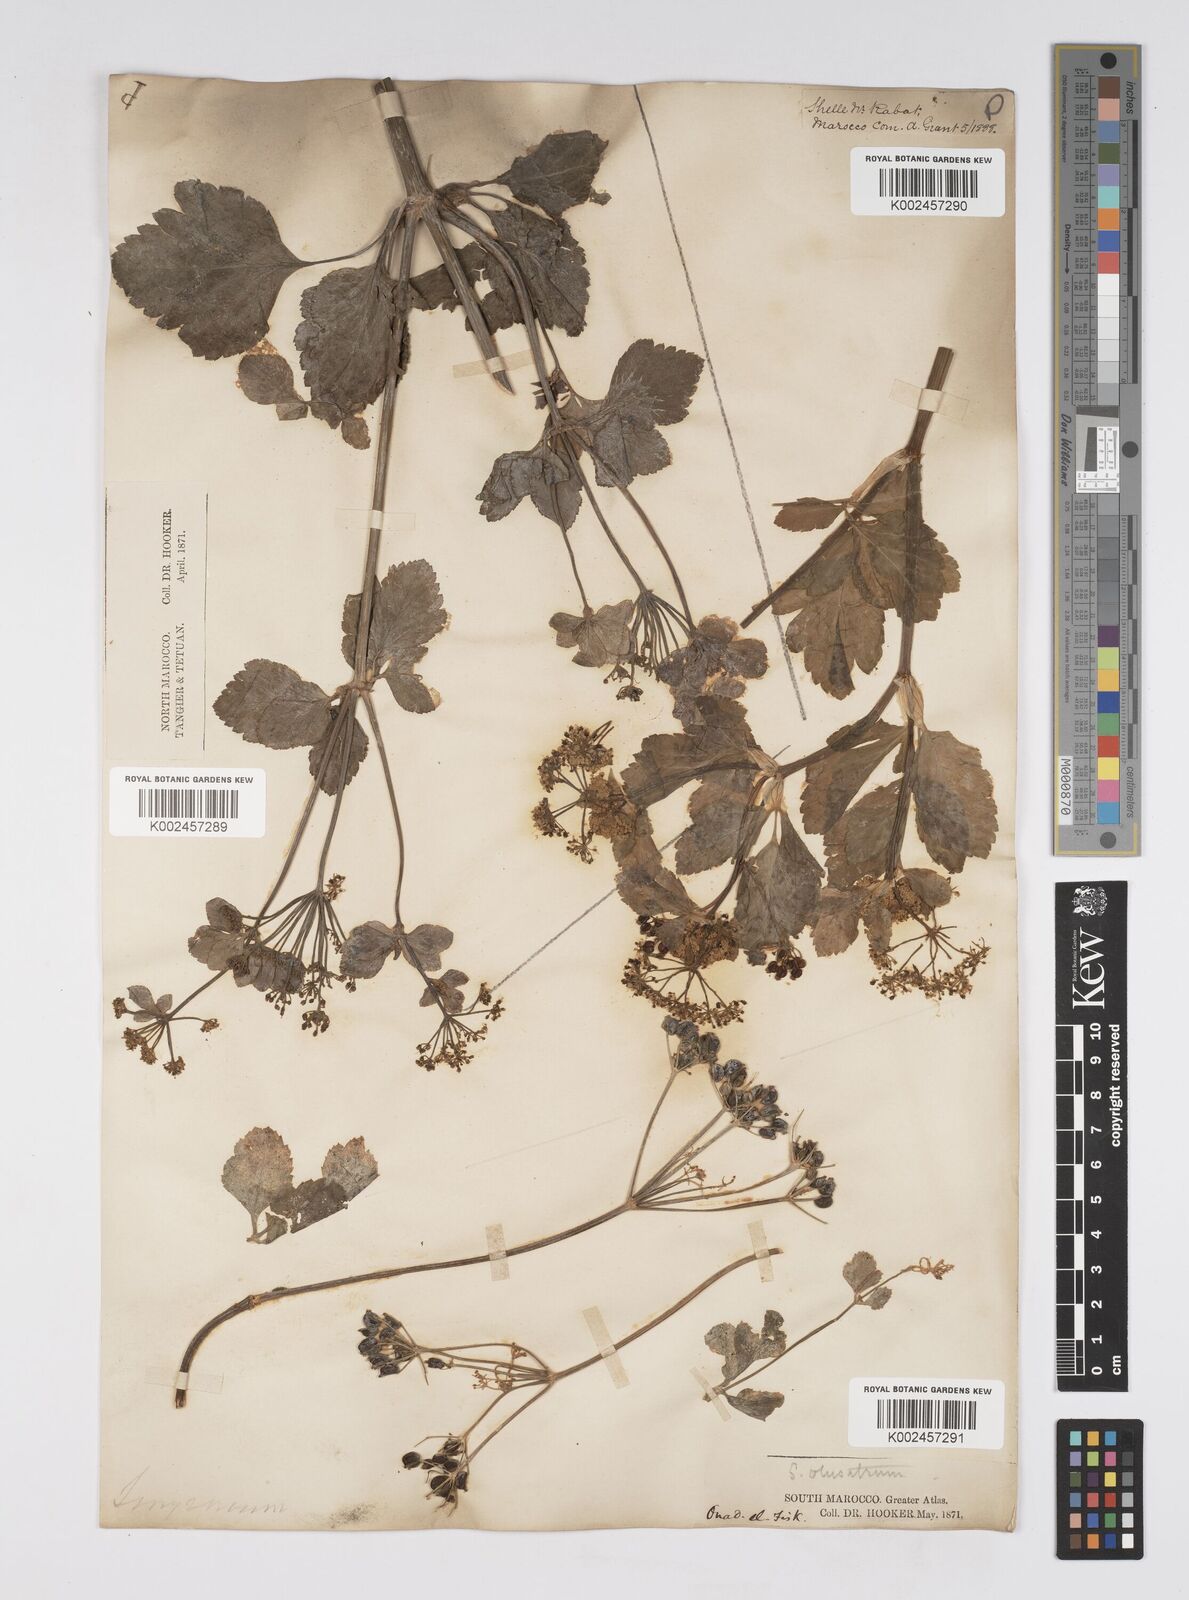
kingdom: Plantae
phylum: Tracheophyta
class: Magnoliopsida
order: Apiales
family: Apiaceae
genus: Smyrnium
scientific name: Smyrnium olusatrum
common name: Alexanders
